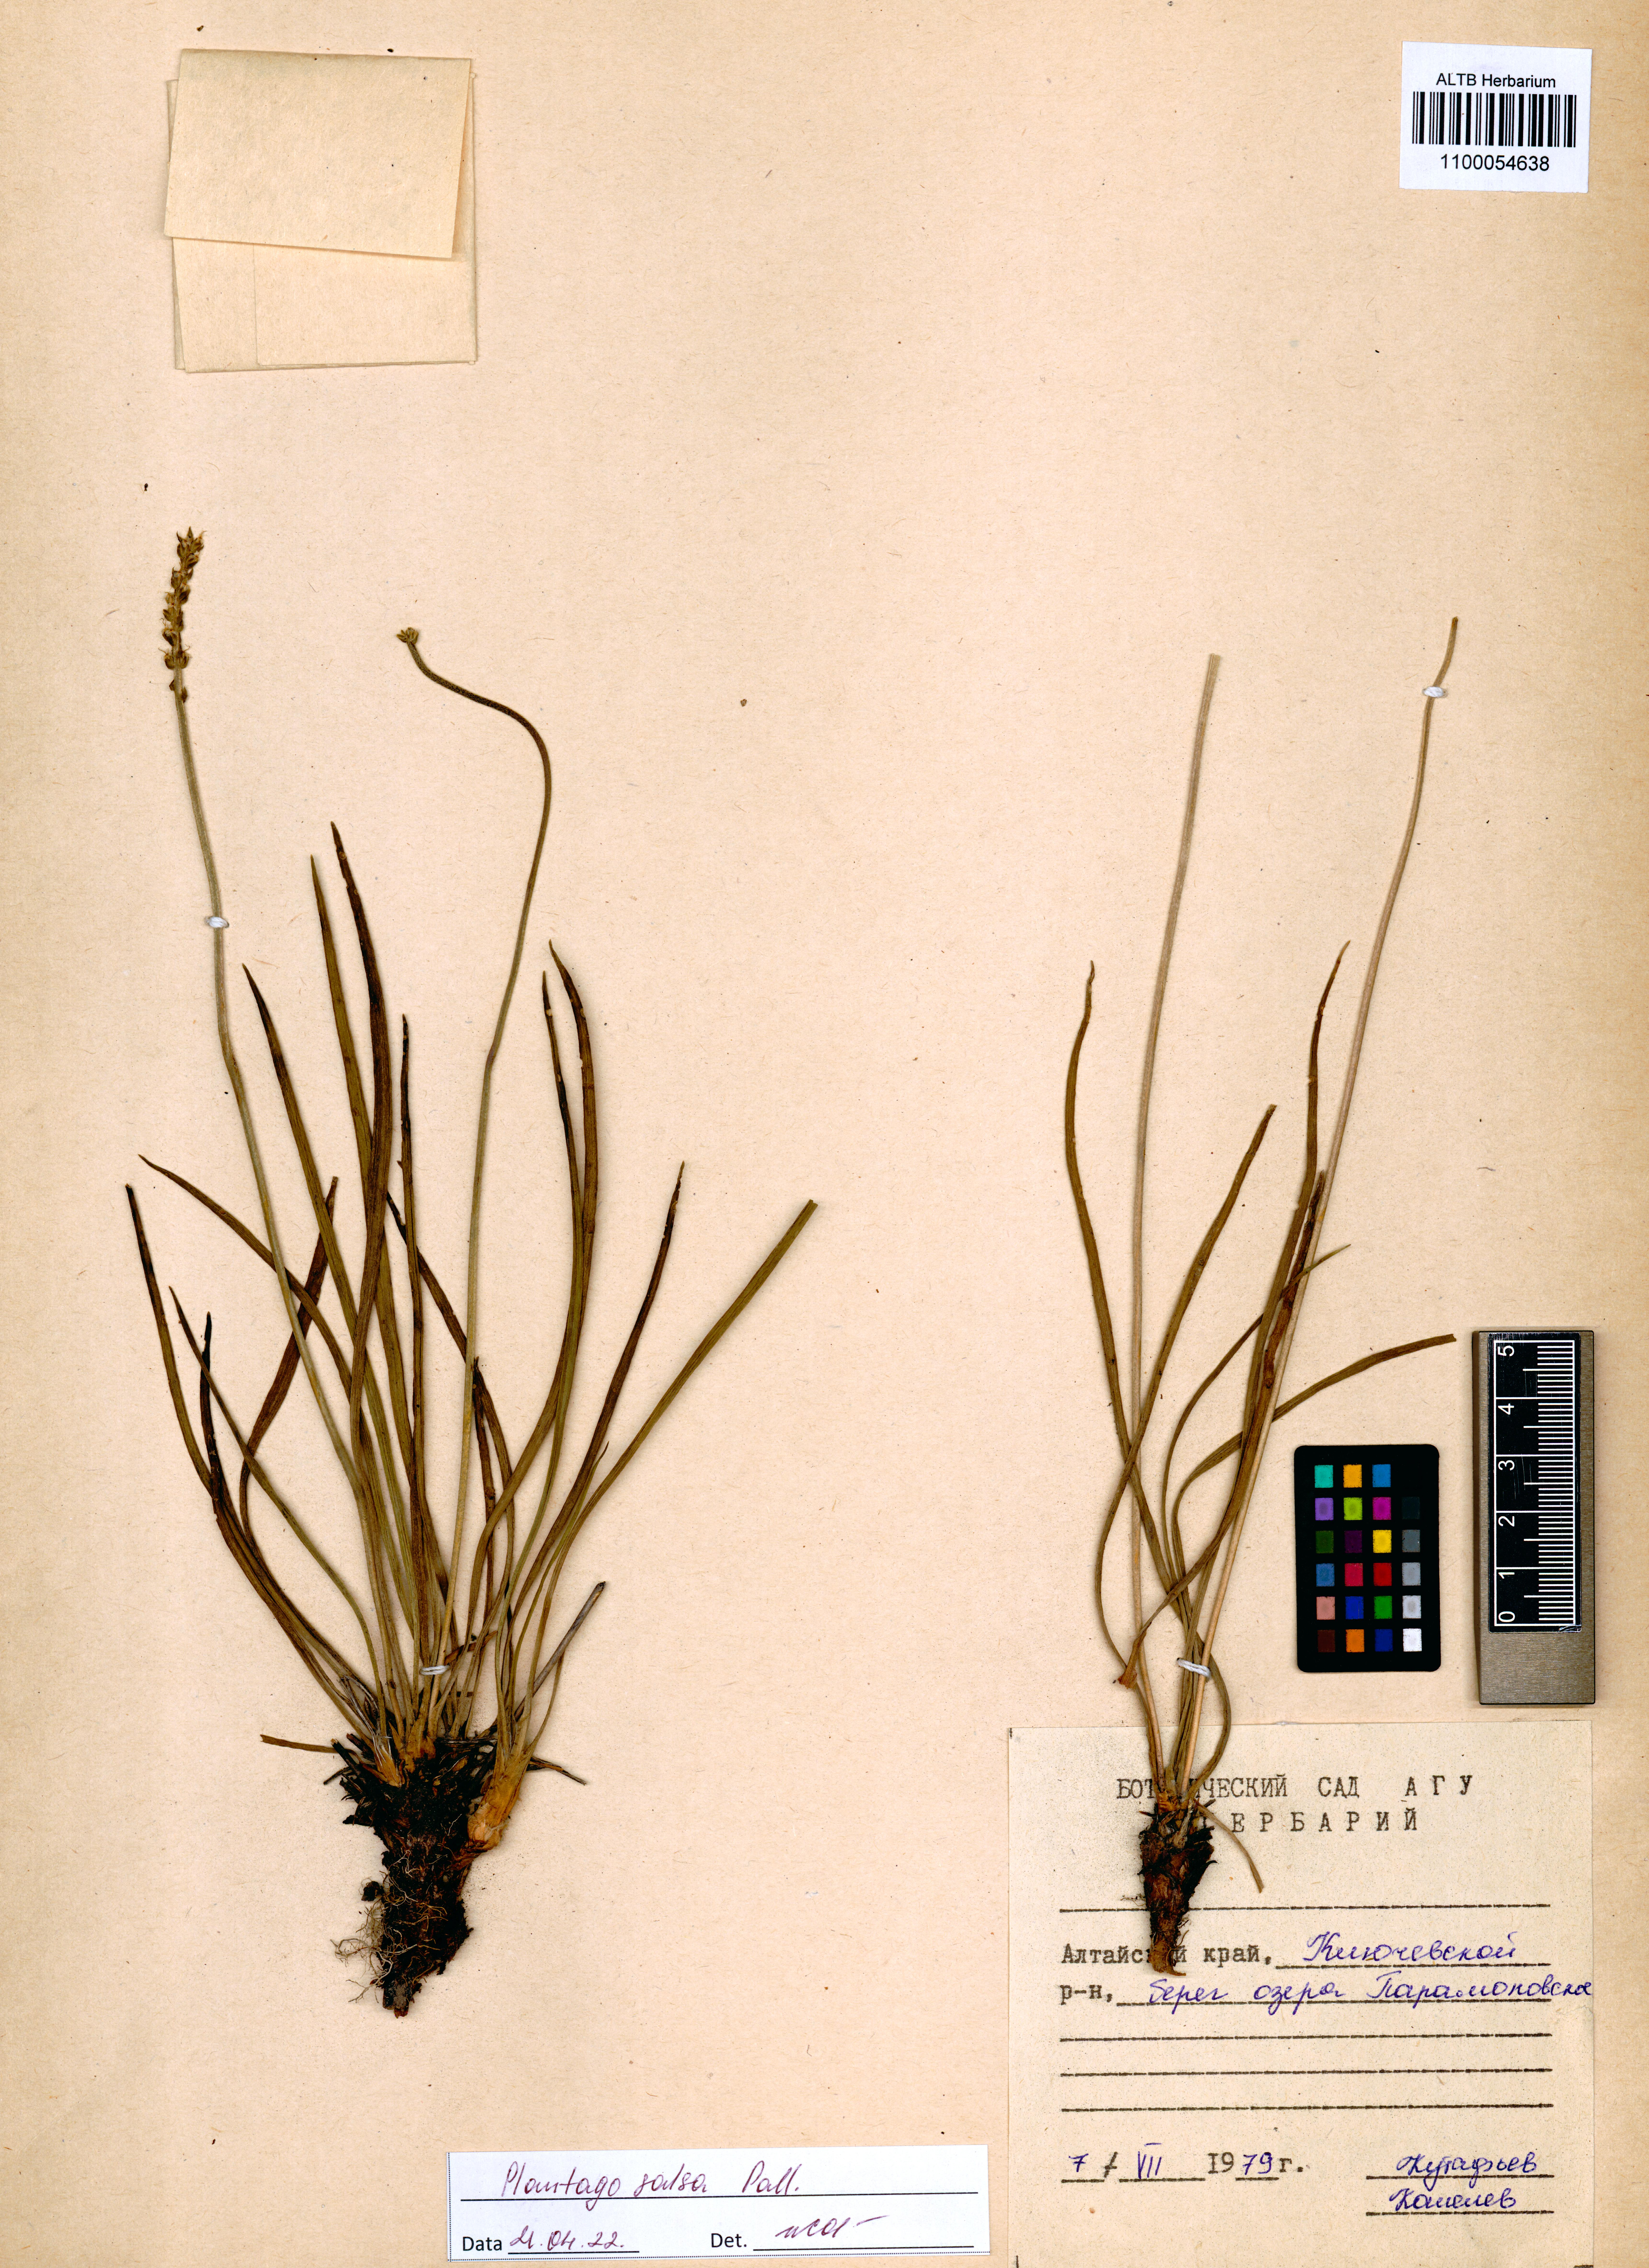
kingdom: Plantae
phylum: Tracheophyta
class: Magnoliopsida
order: Lamiales
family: Plantaginaceae
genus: Plantago
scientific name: Plantago salsa
